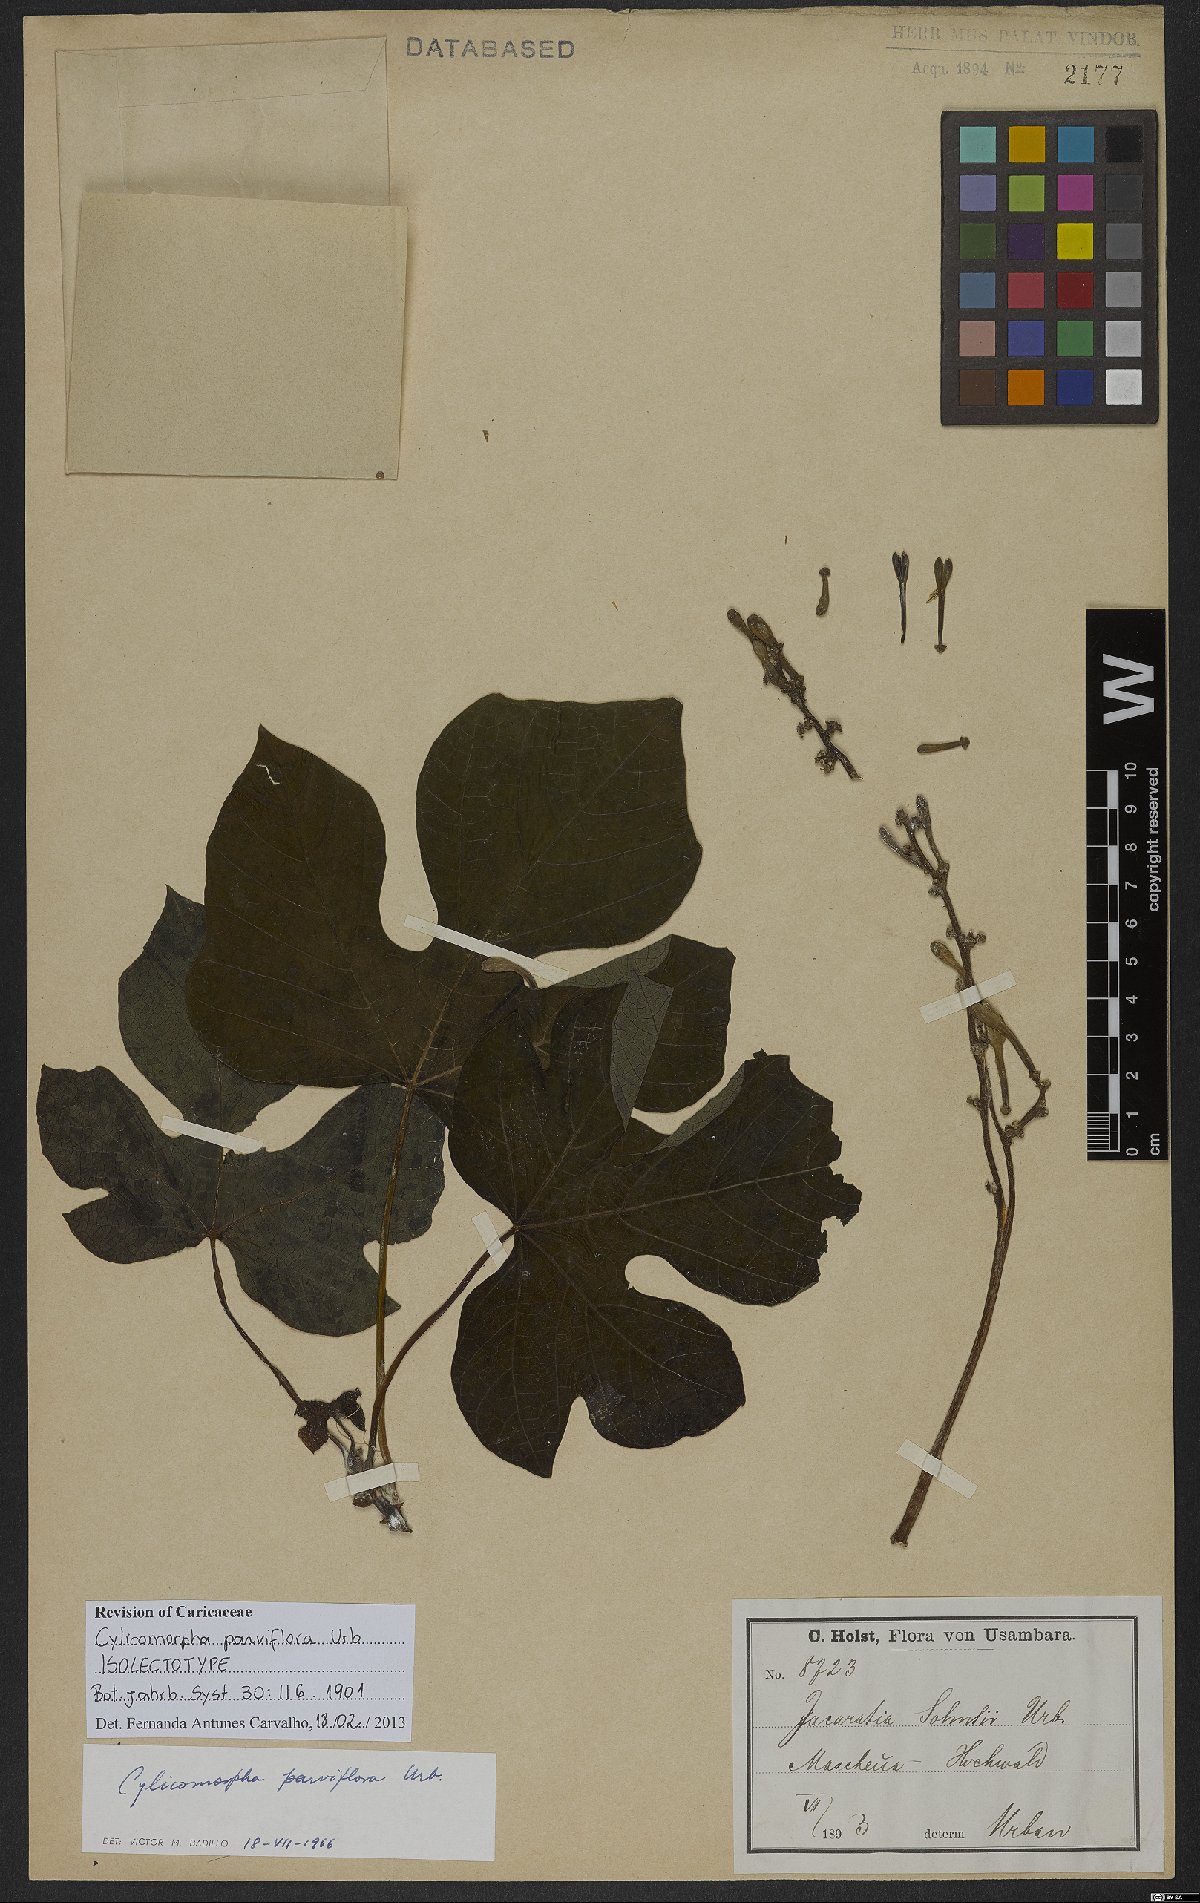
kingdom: Plantae
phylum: Tracheophyta
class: Magnoliopsida
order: Brassicales
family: Caricaceae
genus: Cylicomorpha
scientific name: Cylicomorpha parviflora
